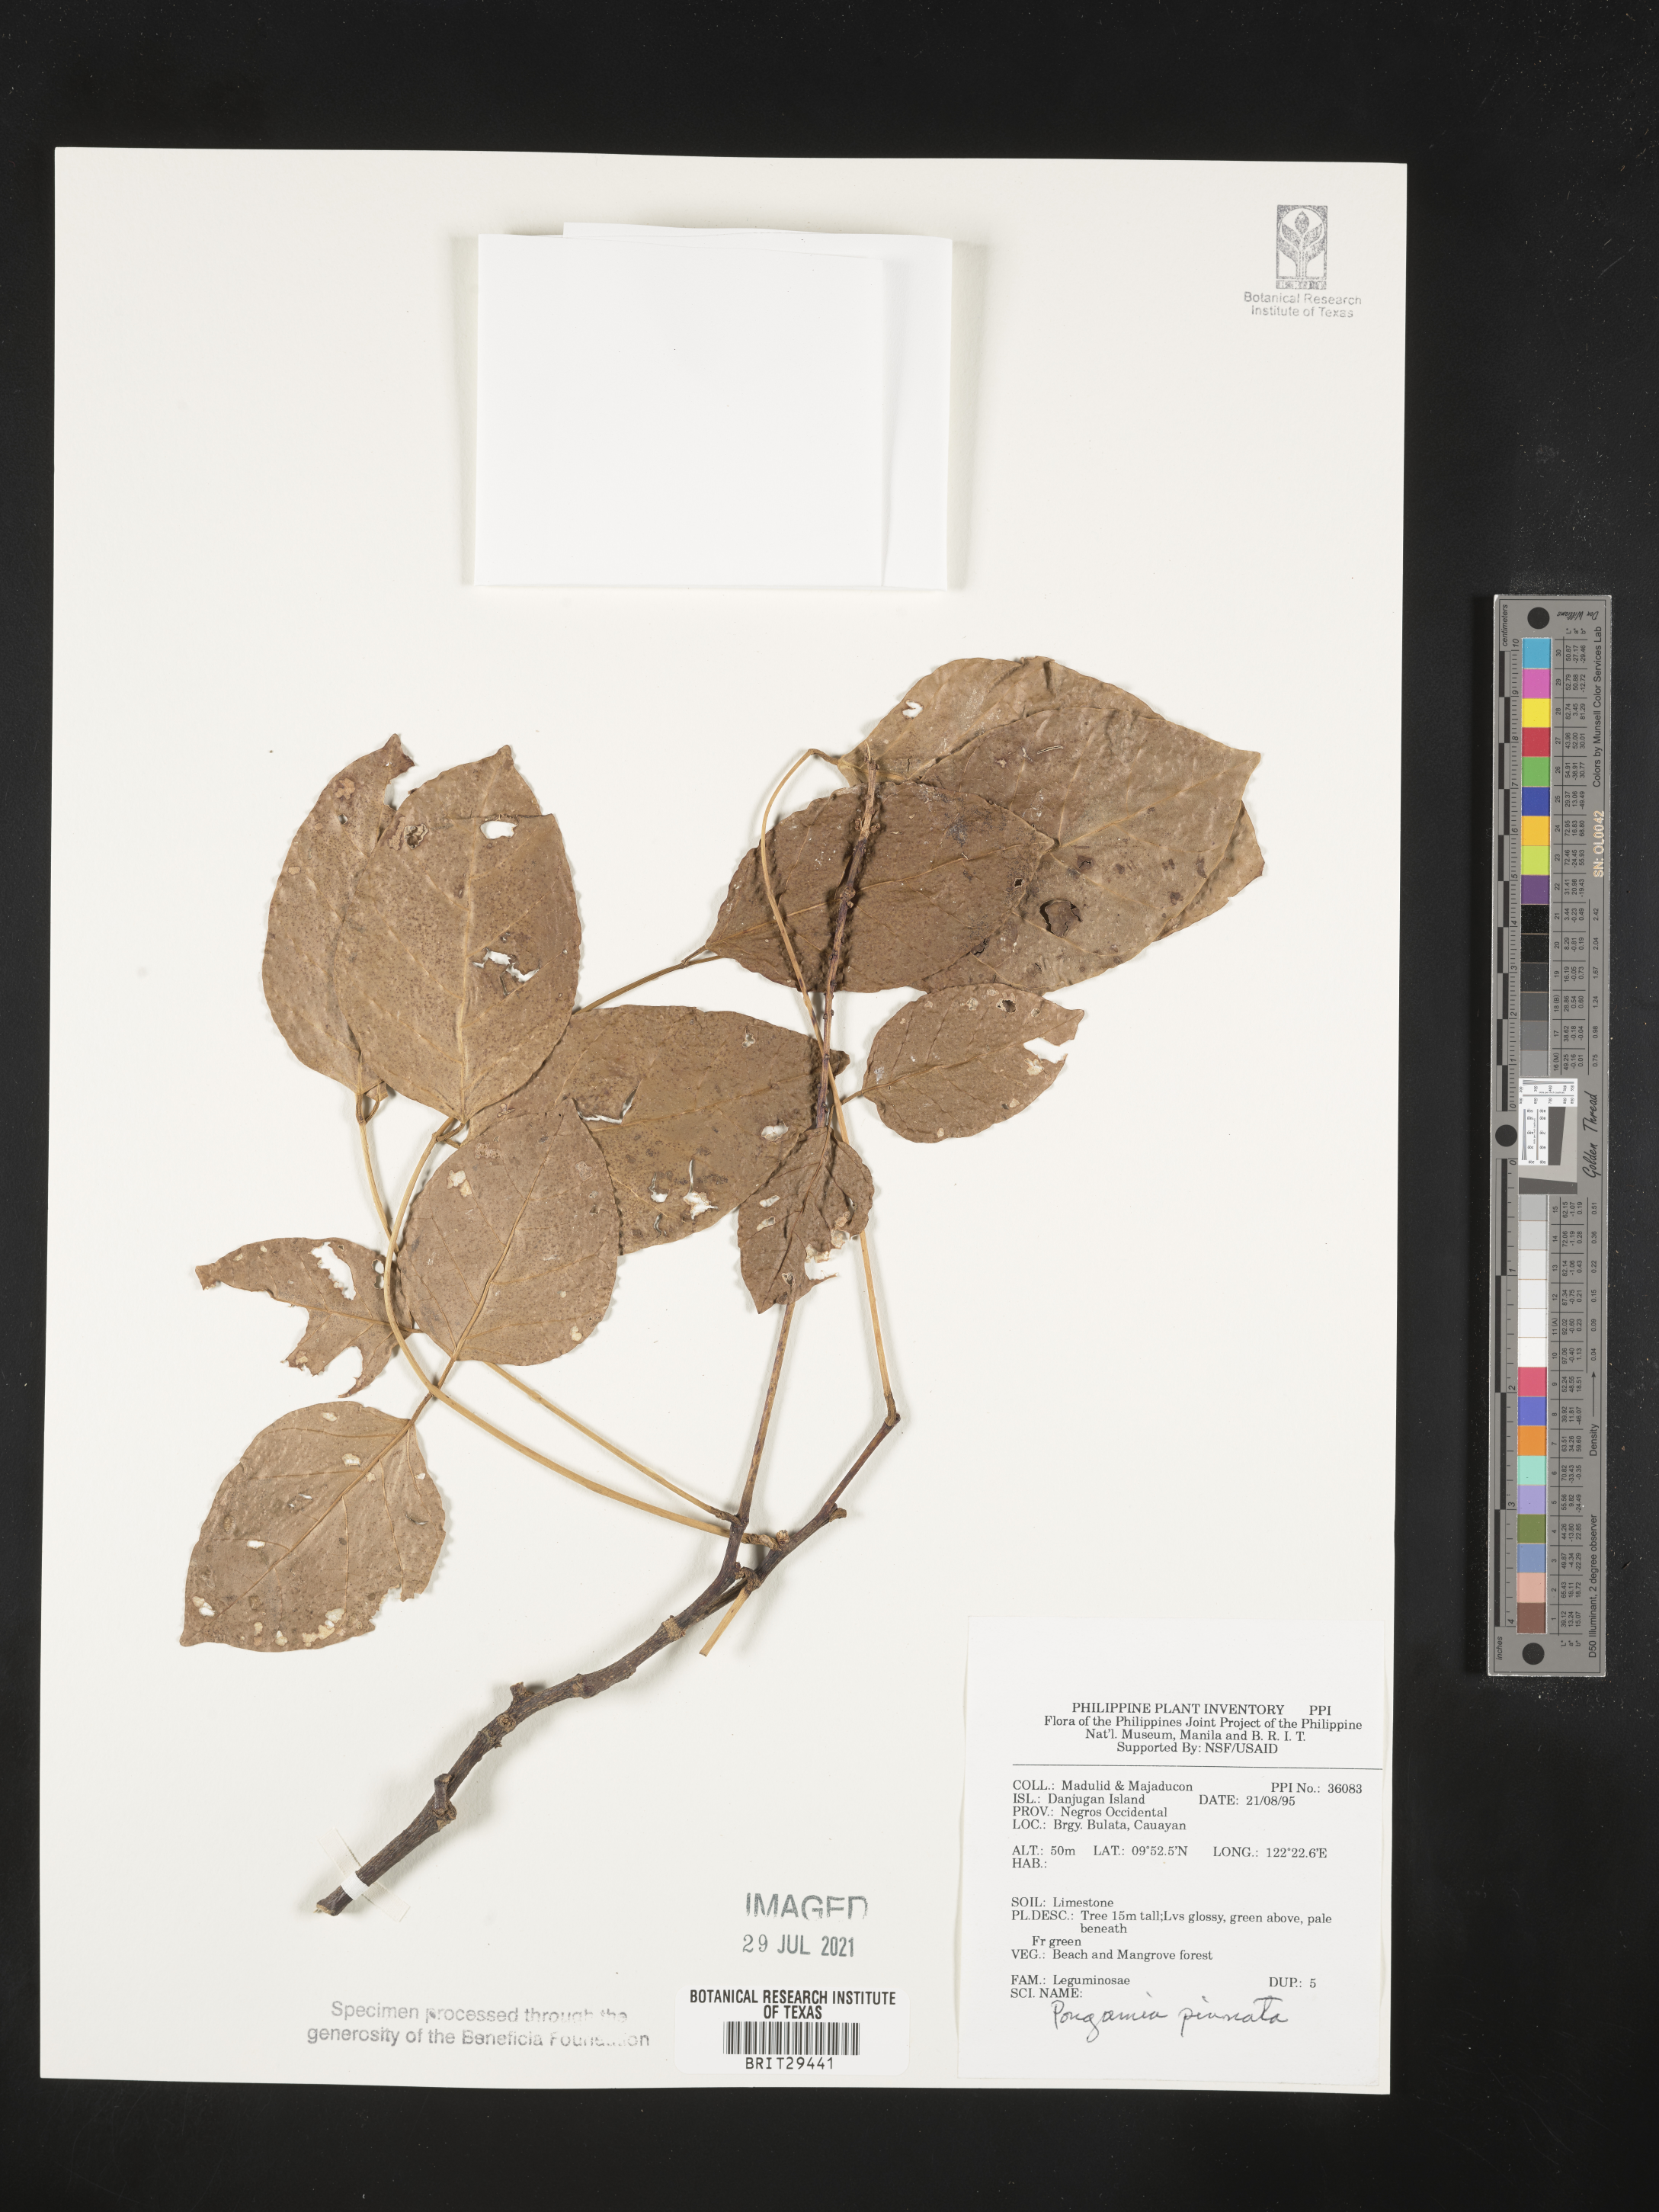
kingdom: Plantae
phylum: Tracheophyta
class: Magnoliopsida
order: Fabales
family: Fabaceae
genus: Pongamia
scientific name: Pongamia pinnata
